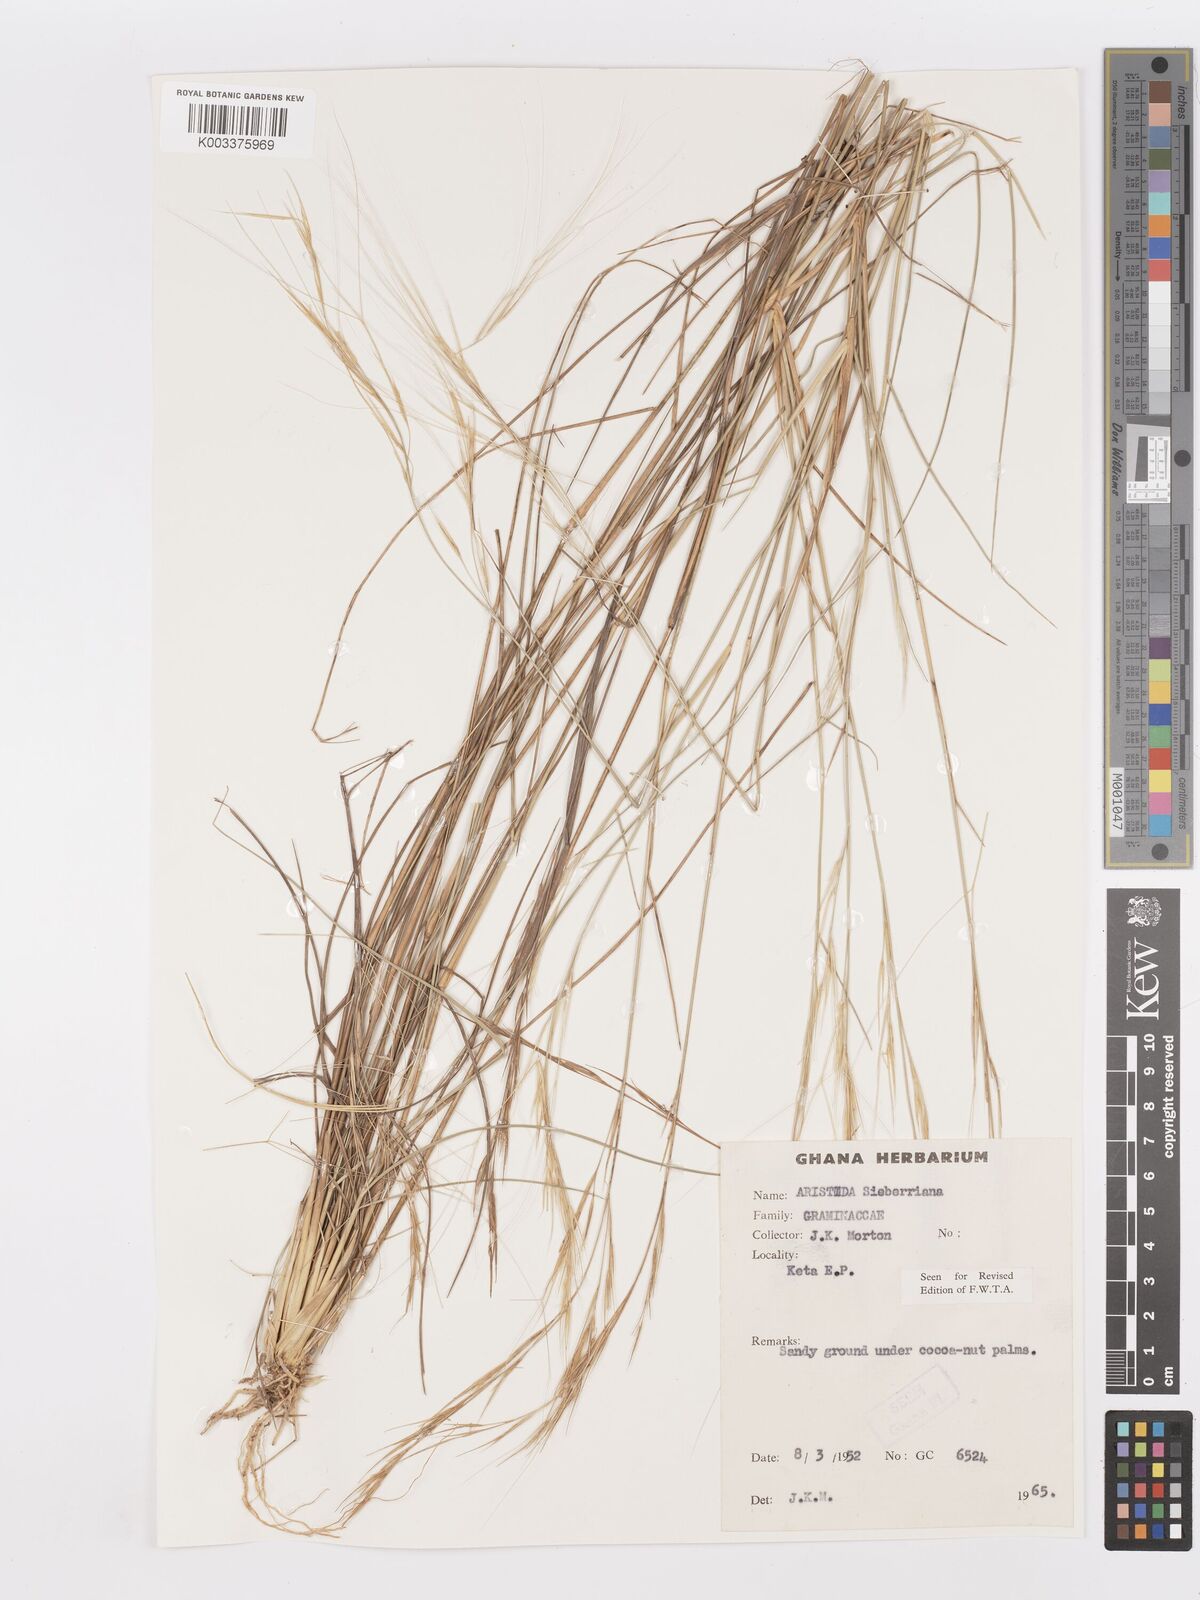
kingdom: Plantae
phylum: Tracheophyta
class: Liliopsida
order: Poales
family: Poaceae
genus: Aristida
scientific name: Aristida sieberiana
